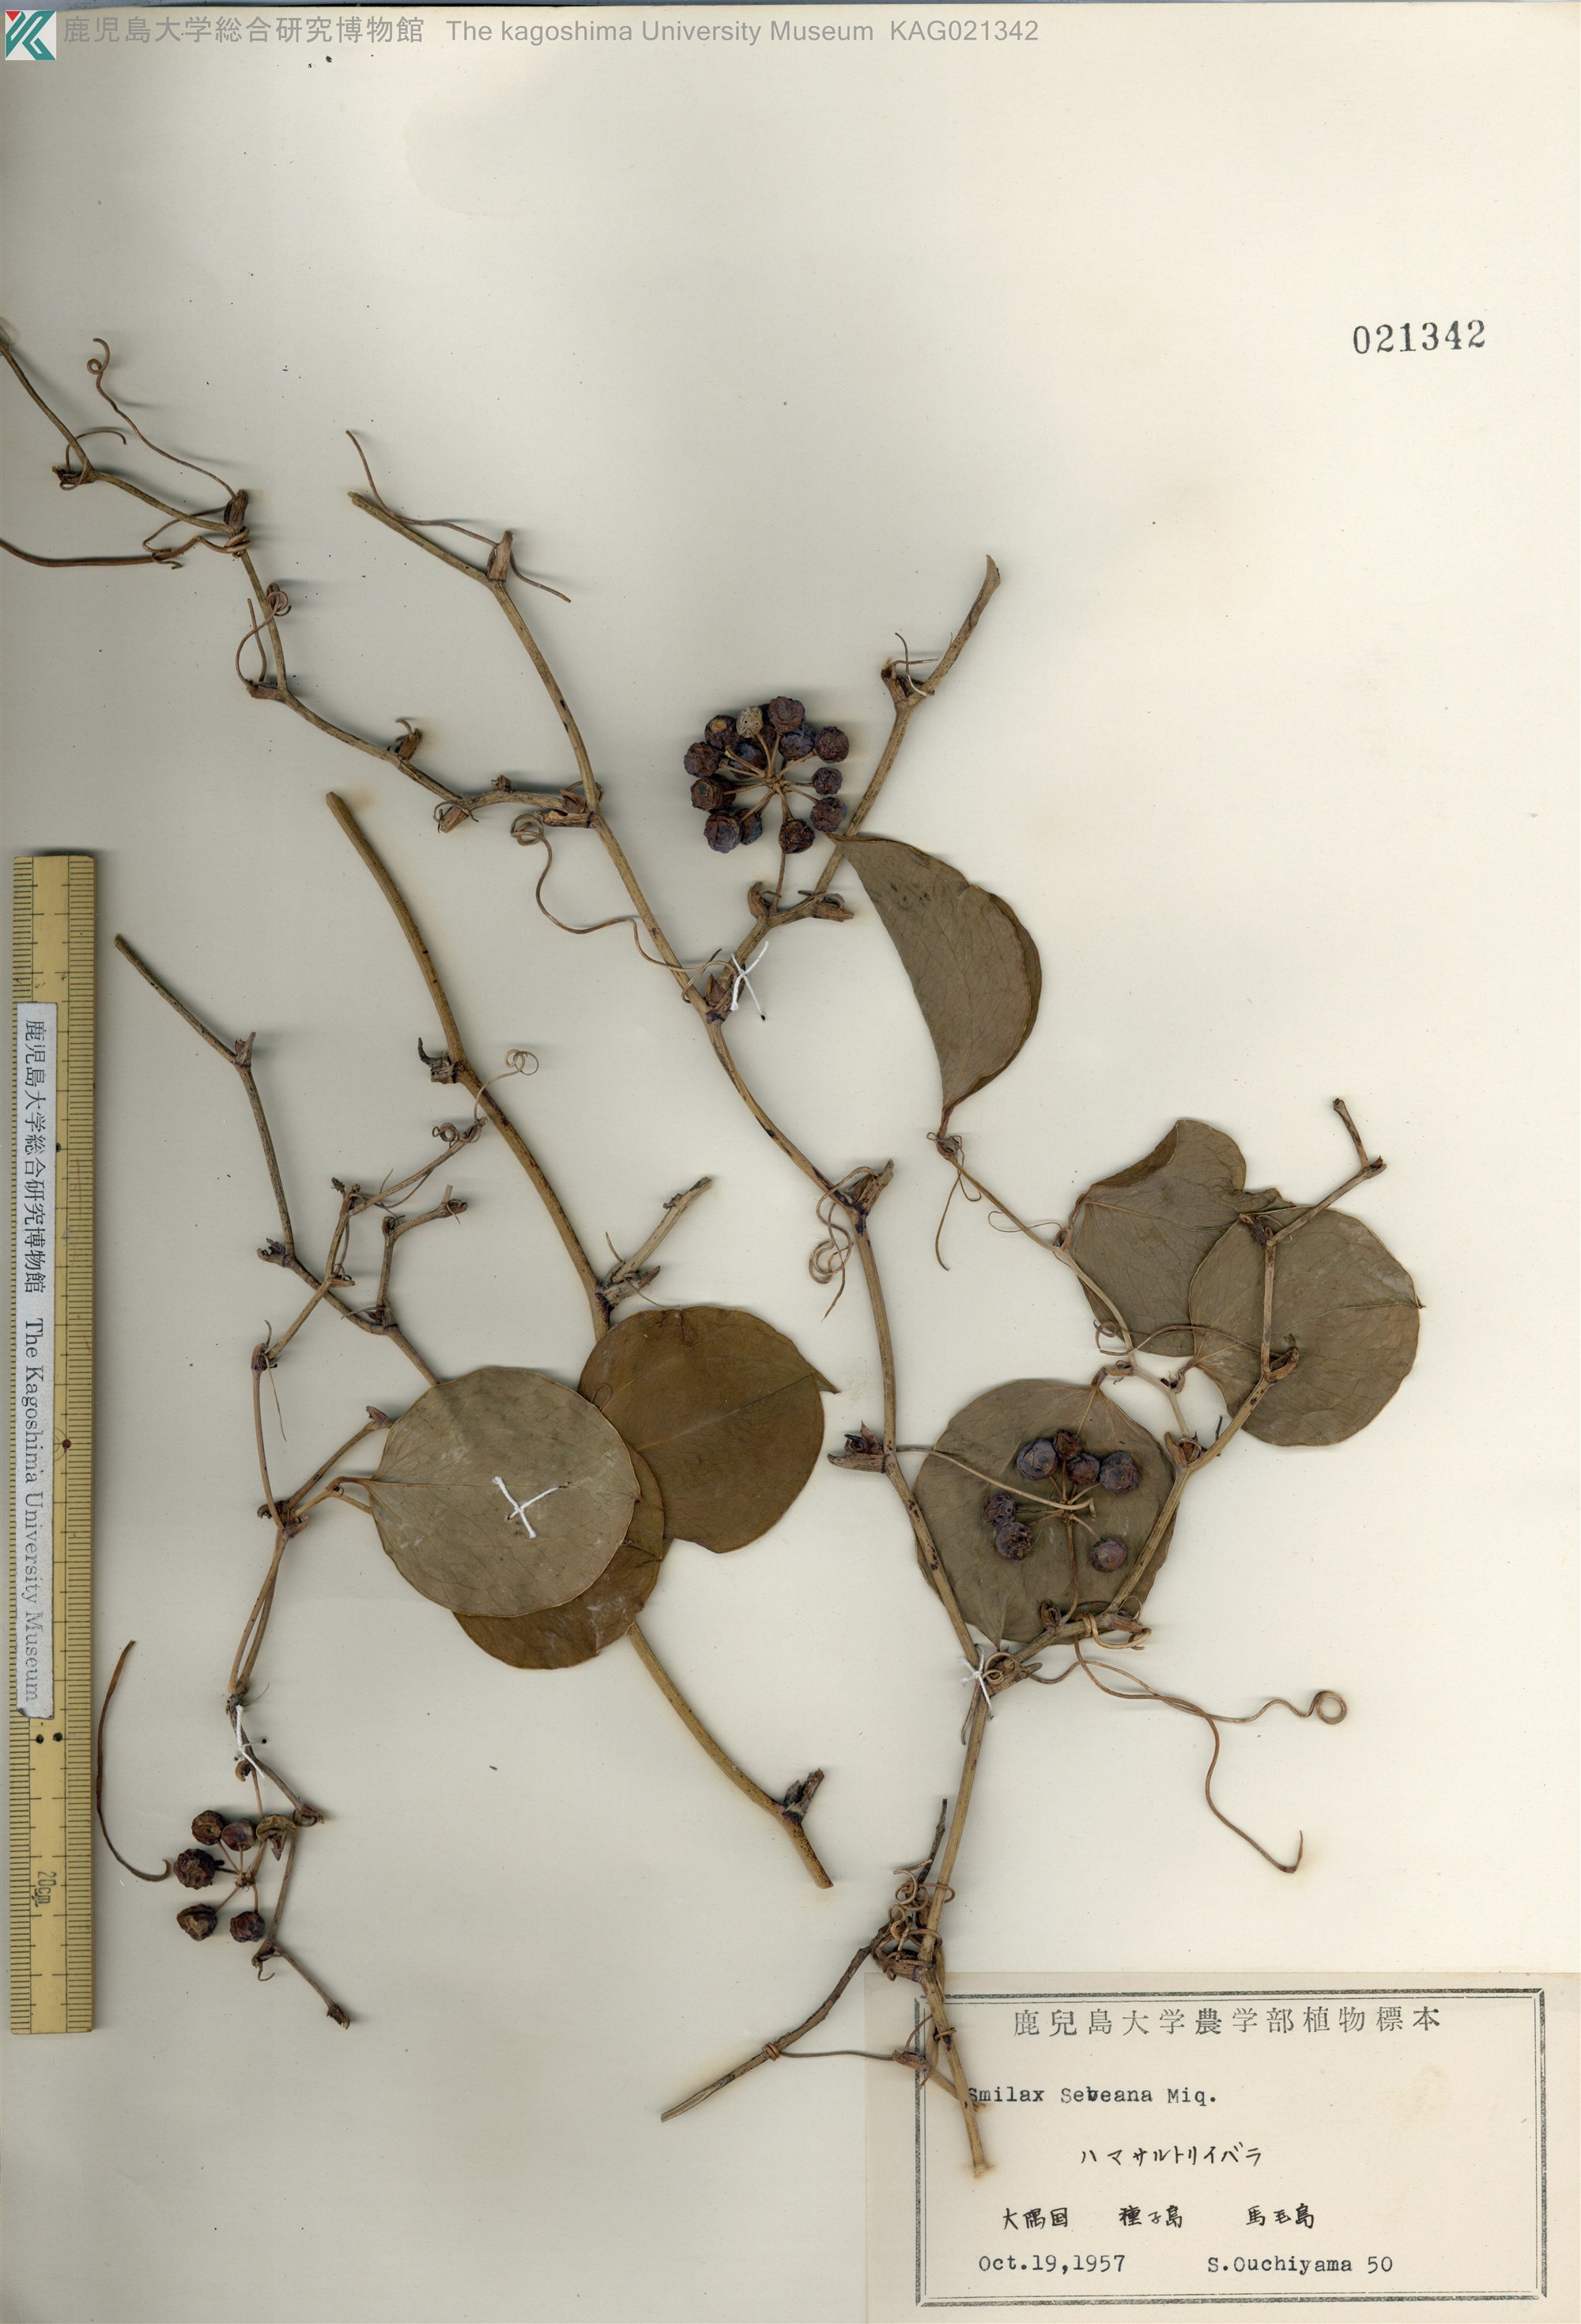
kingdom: Plantae
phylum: Tracheophyta
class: Liliopsida
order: Liliales
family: Smilacaceae
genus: Smilax
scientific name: Smilax sebeana
